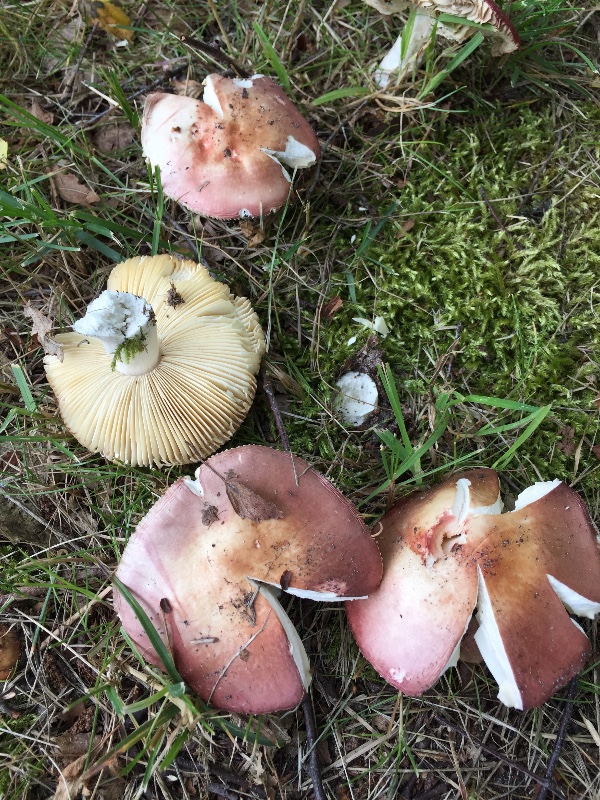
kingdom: Fungi
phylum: Basidiomycota
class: Agaricomycetes
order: Russulales
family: Russulaceae
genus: Russula
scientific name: Russula velenovskyi
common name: orangerød skørhat
